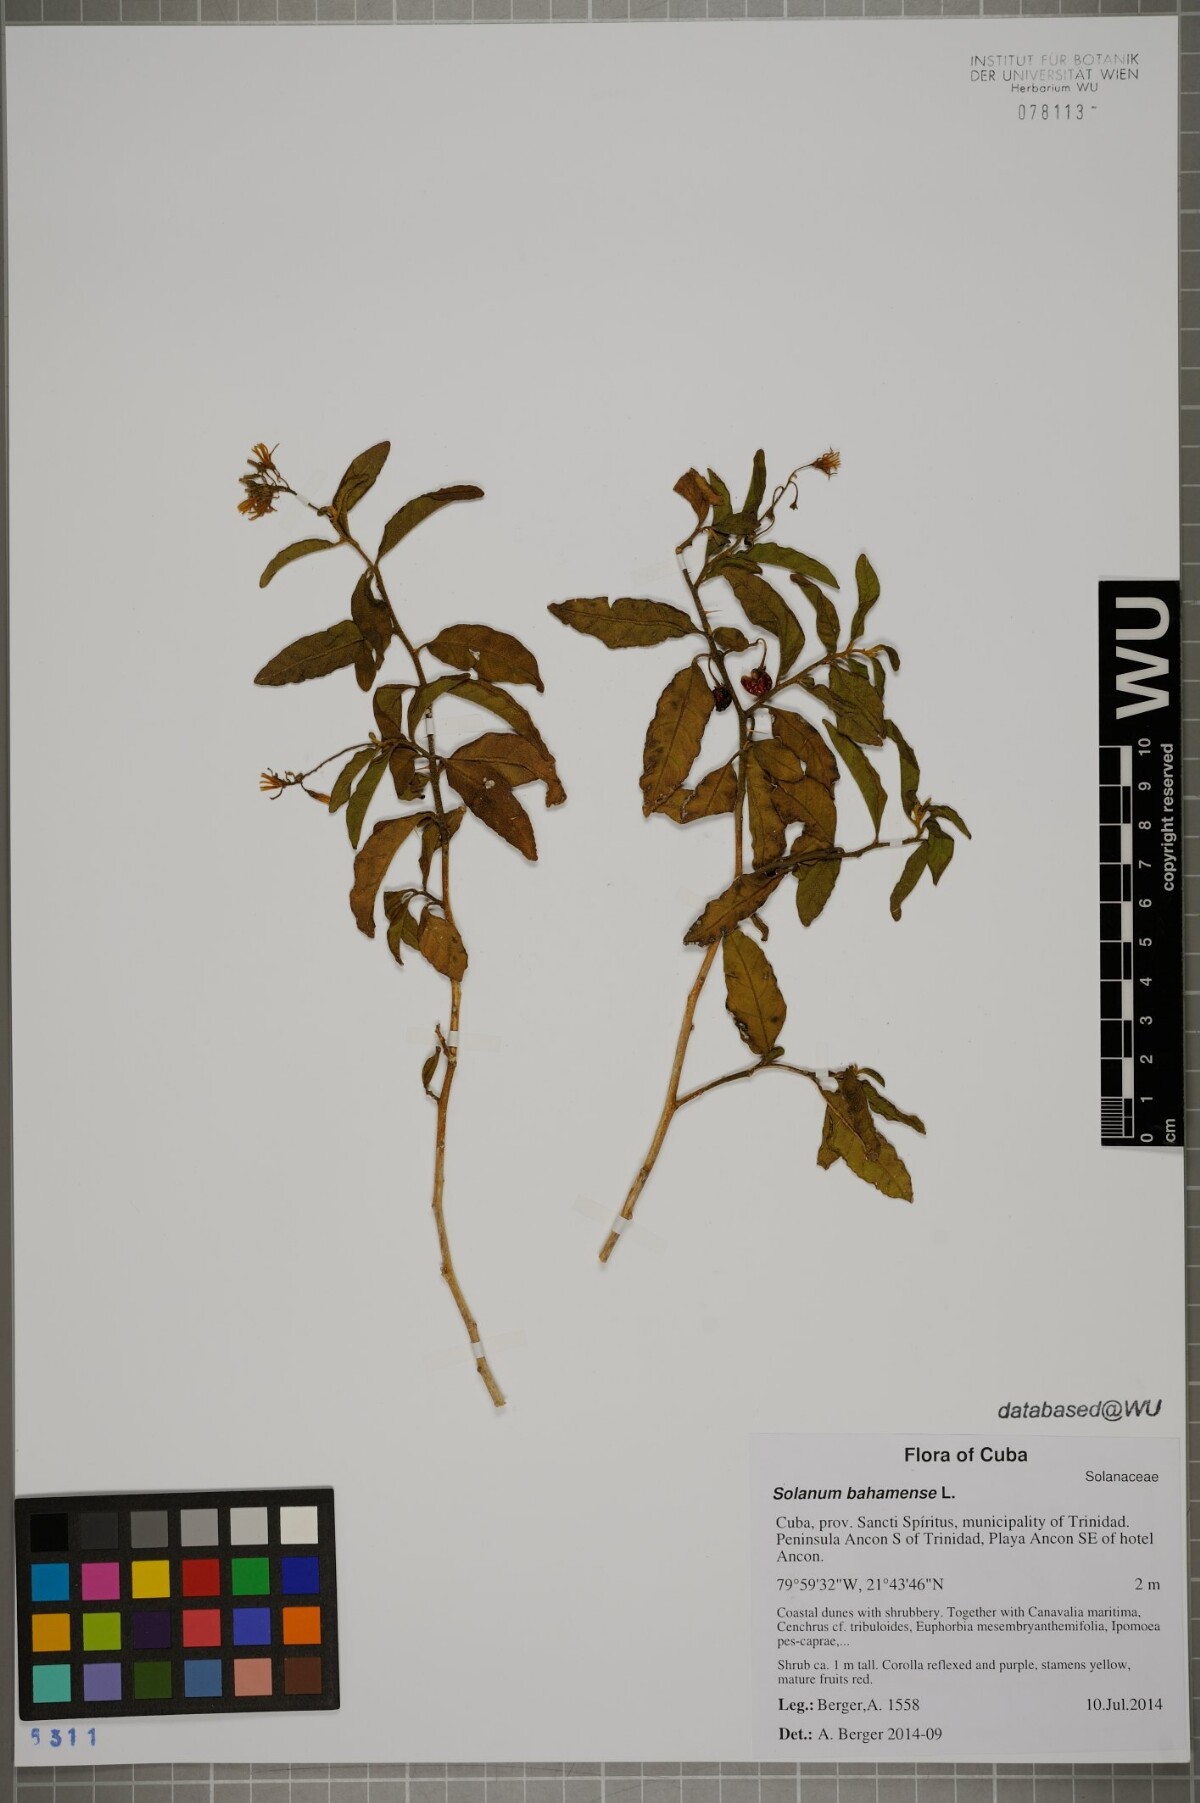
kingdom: Plantae
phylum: Tracheophyta
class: Magnoliopsida
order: Solanales
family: Solanaceae
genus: Solanum
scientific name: Solanum bahamense
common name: Canker-berry
